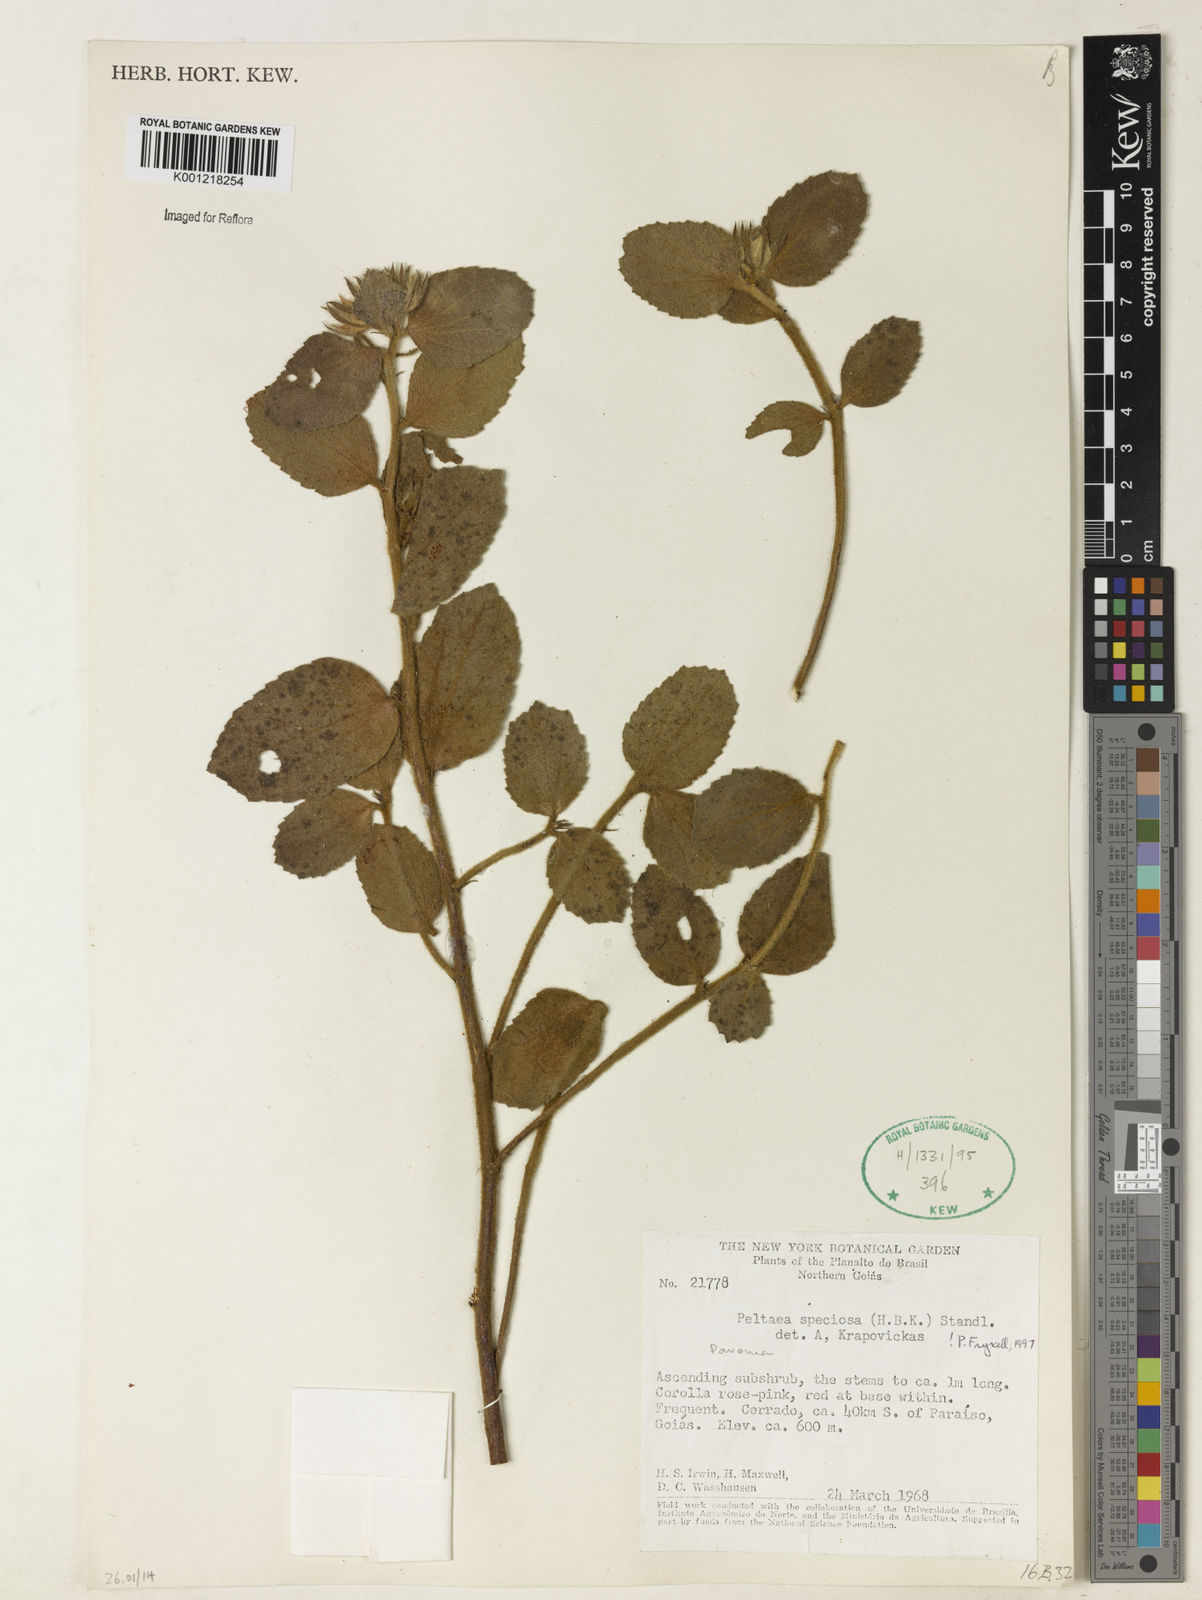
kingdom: Plantae
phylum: Tracheophyta
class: Magnoliopsida
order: Malvales
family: Malvaceae
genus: Peltaea
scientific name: Peltaea speciosa
